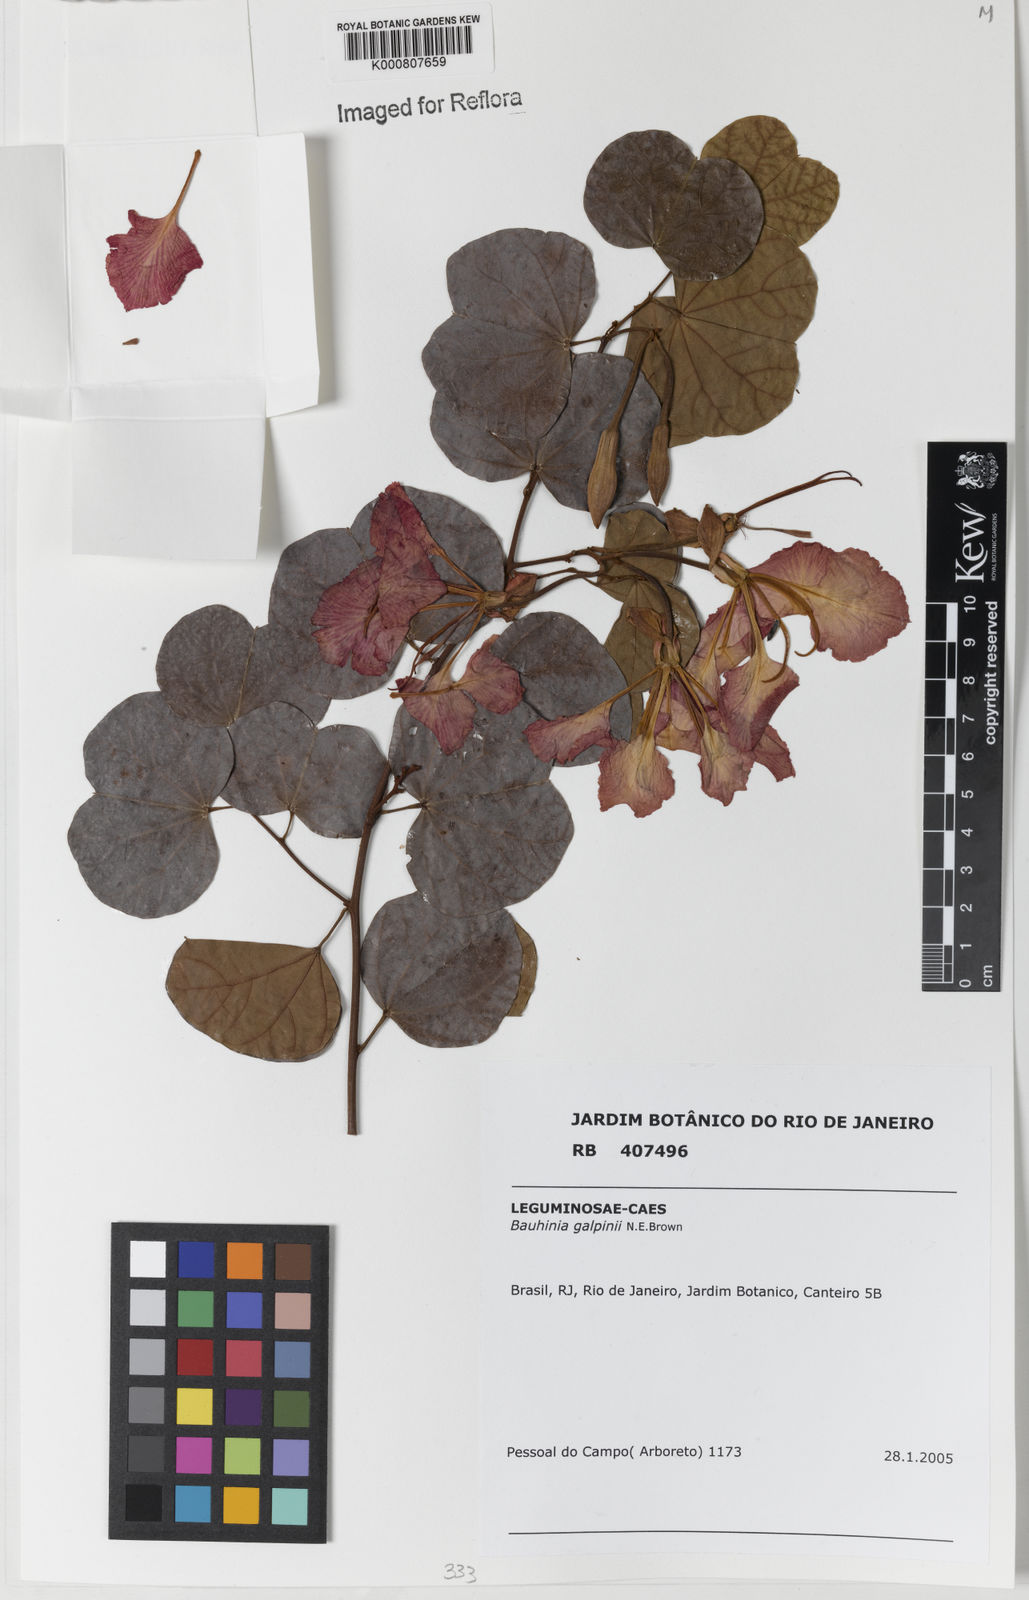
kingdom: Plantae
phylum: Tracheophyta
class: Magnoliopsida
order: Fabales
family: Fabaceae
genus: Bauhinia
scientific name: Bauhinia galpinii
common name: African plume
